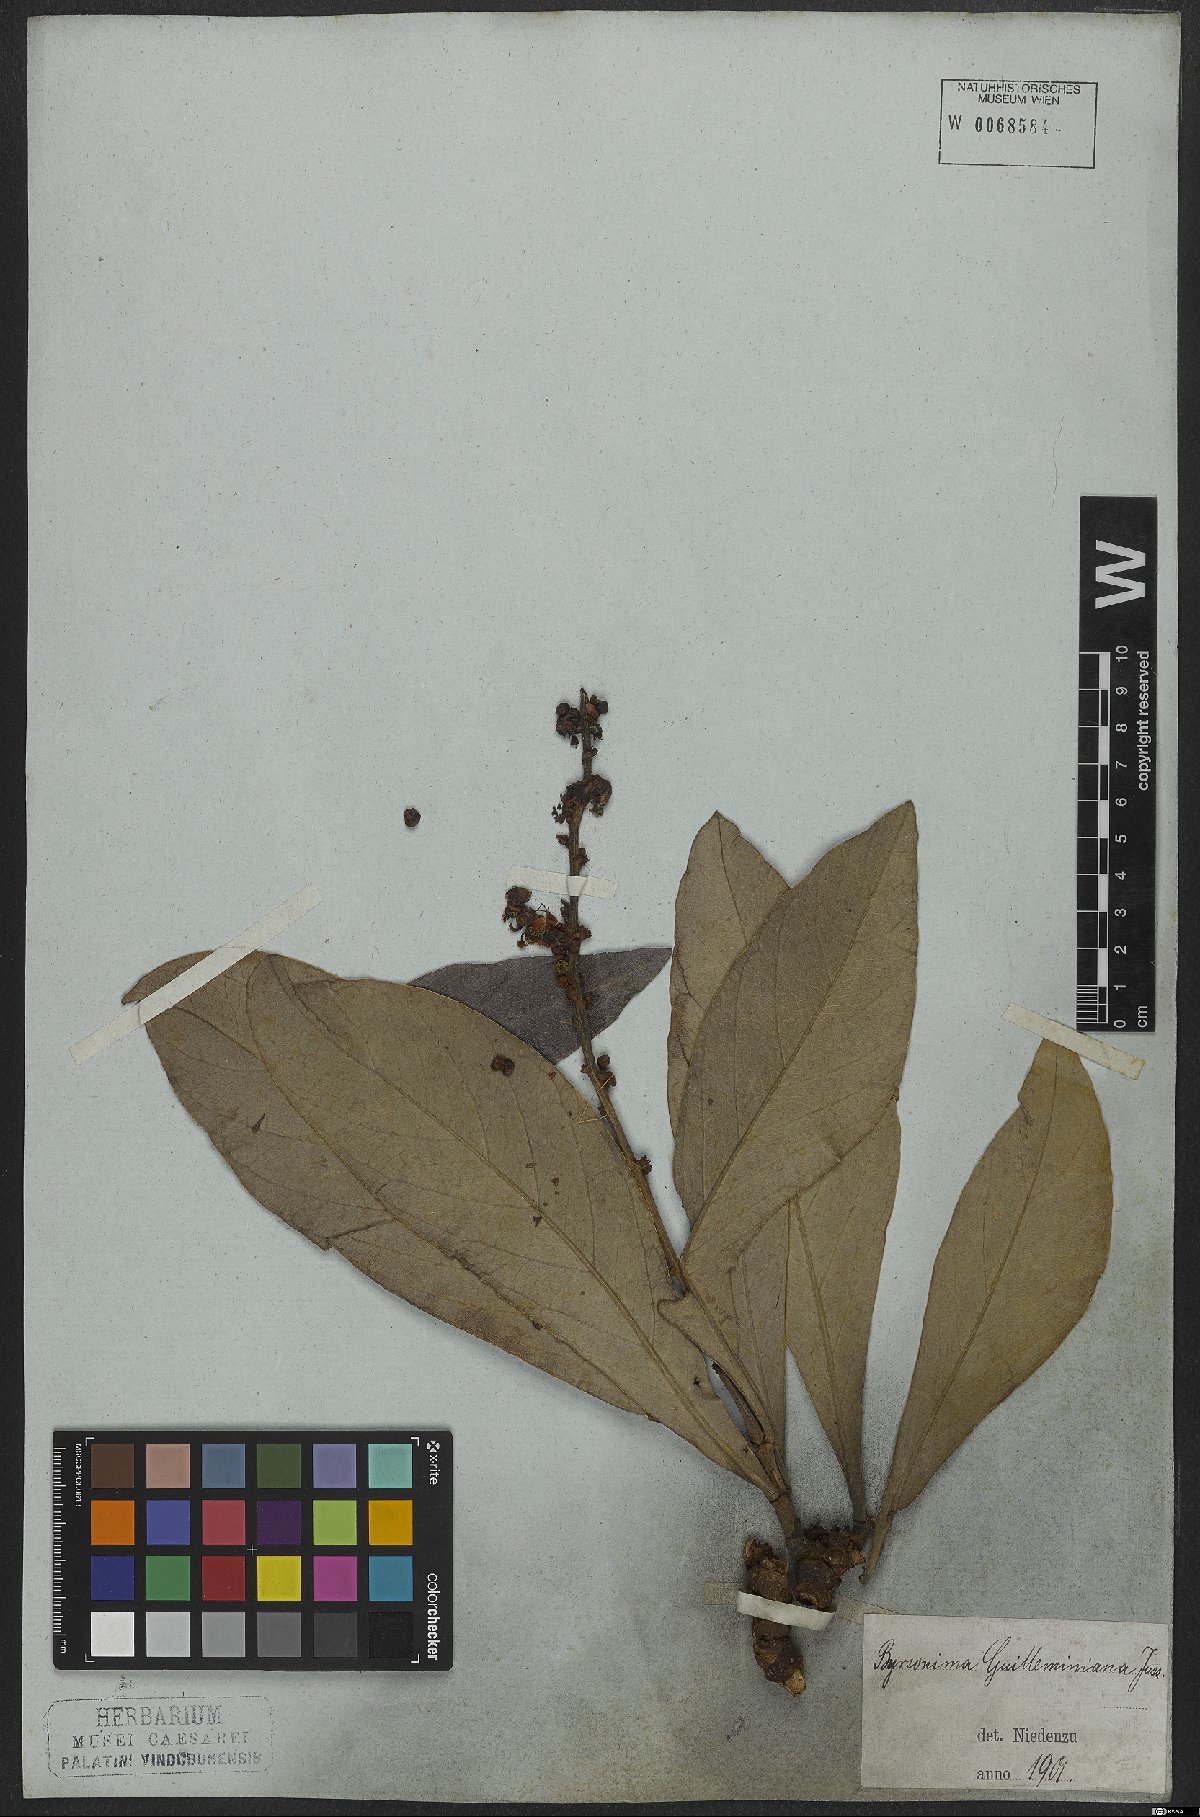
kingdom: Plantae
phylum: Tracheophyta
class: Magnoliopsida
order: Malpighiales
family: Malpighiaceae
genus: Byrsonima
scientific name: Byrsonima guilleminiana
